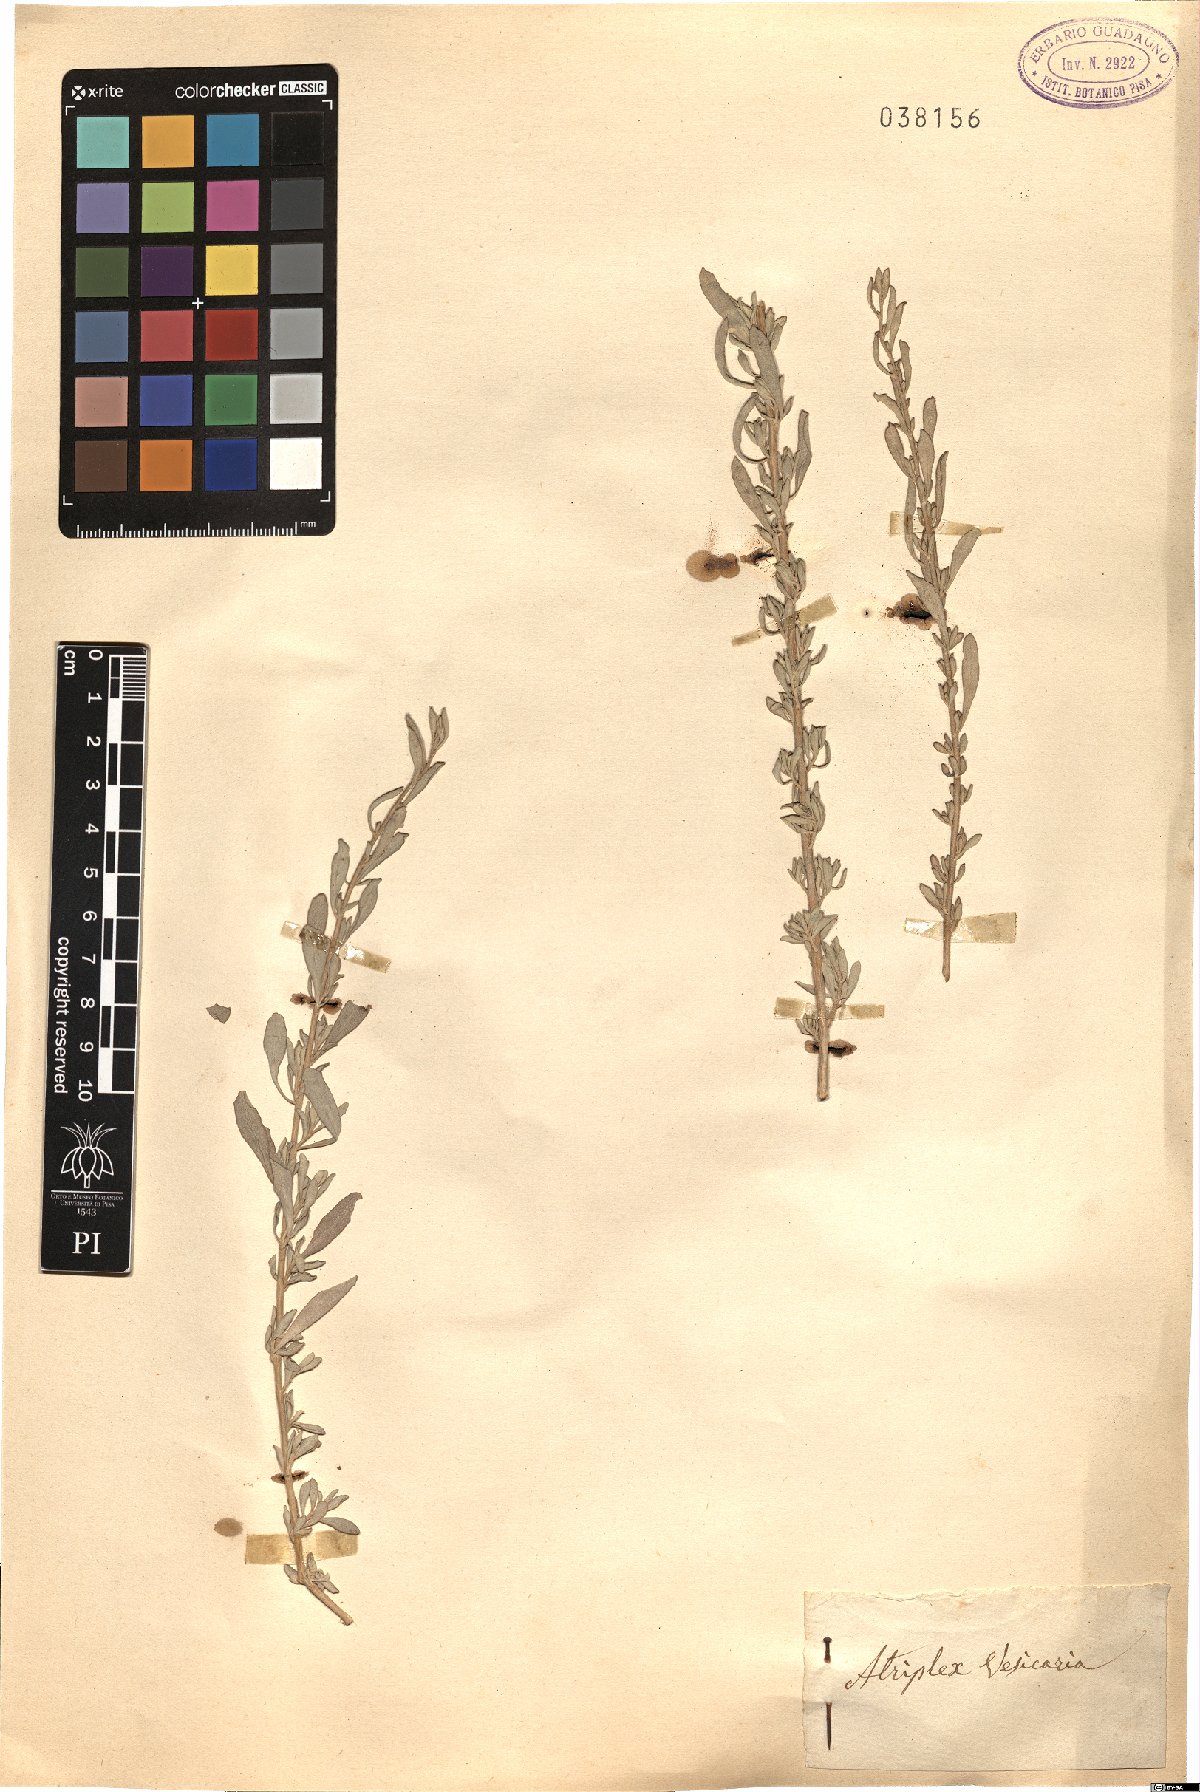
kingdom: Plantae
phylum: Tracheophyta
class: Magnoliopsida
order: Caryophyllales
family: Amaranthaceae
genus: Atriplex
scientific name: Atriplex vesicaria
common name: Aboriginal saltbush
